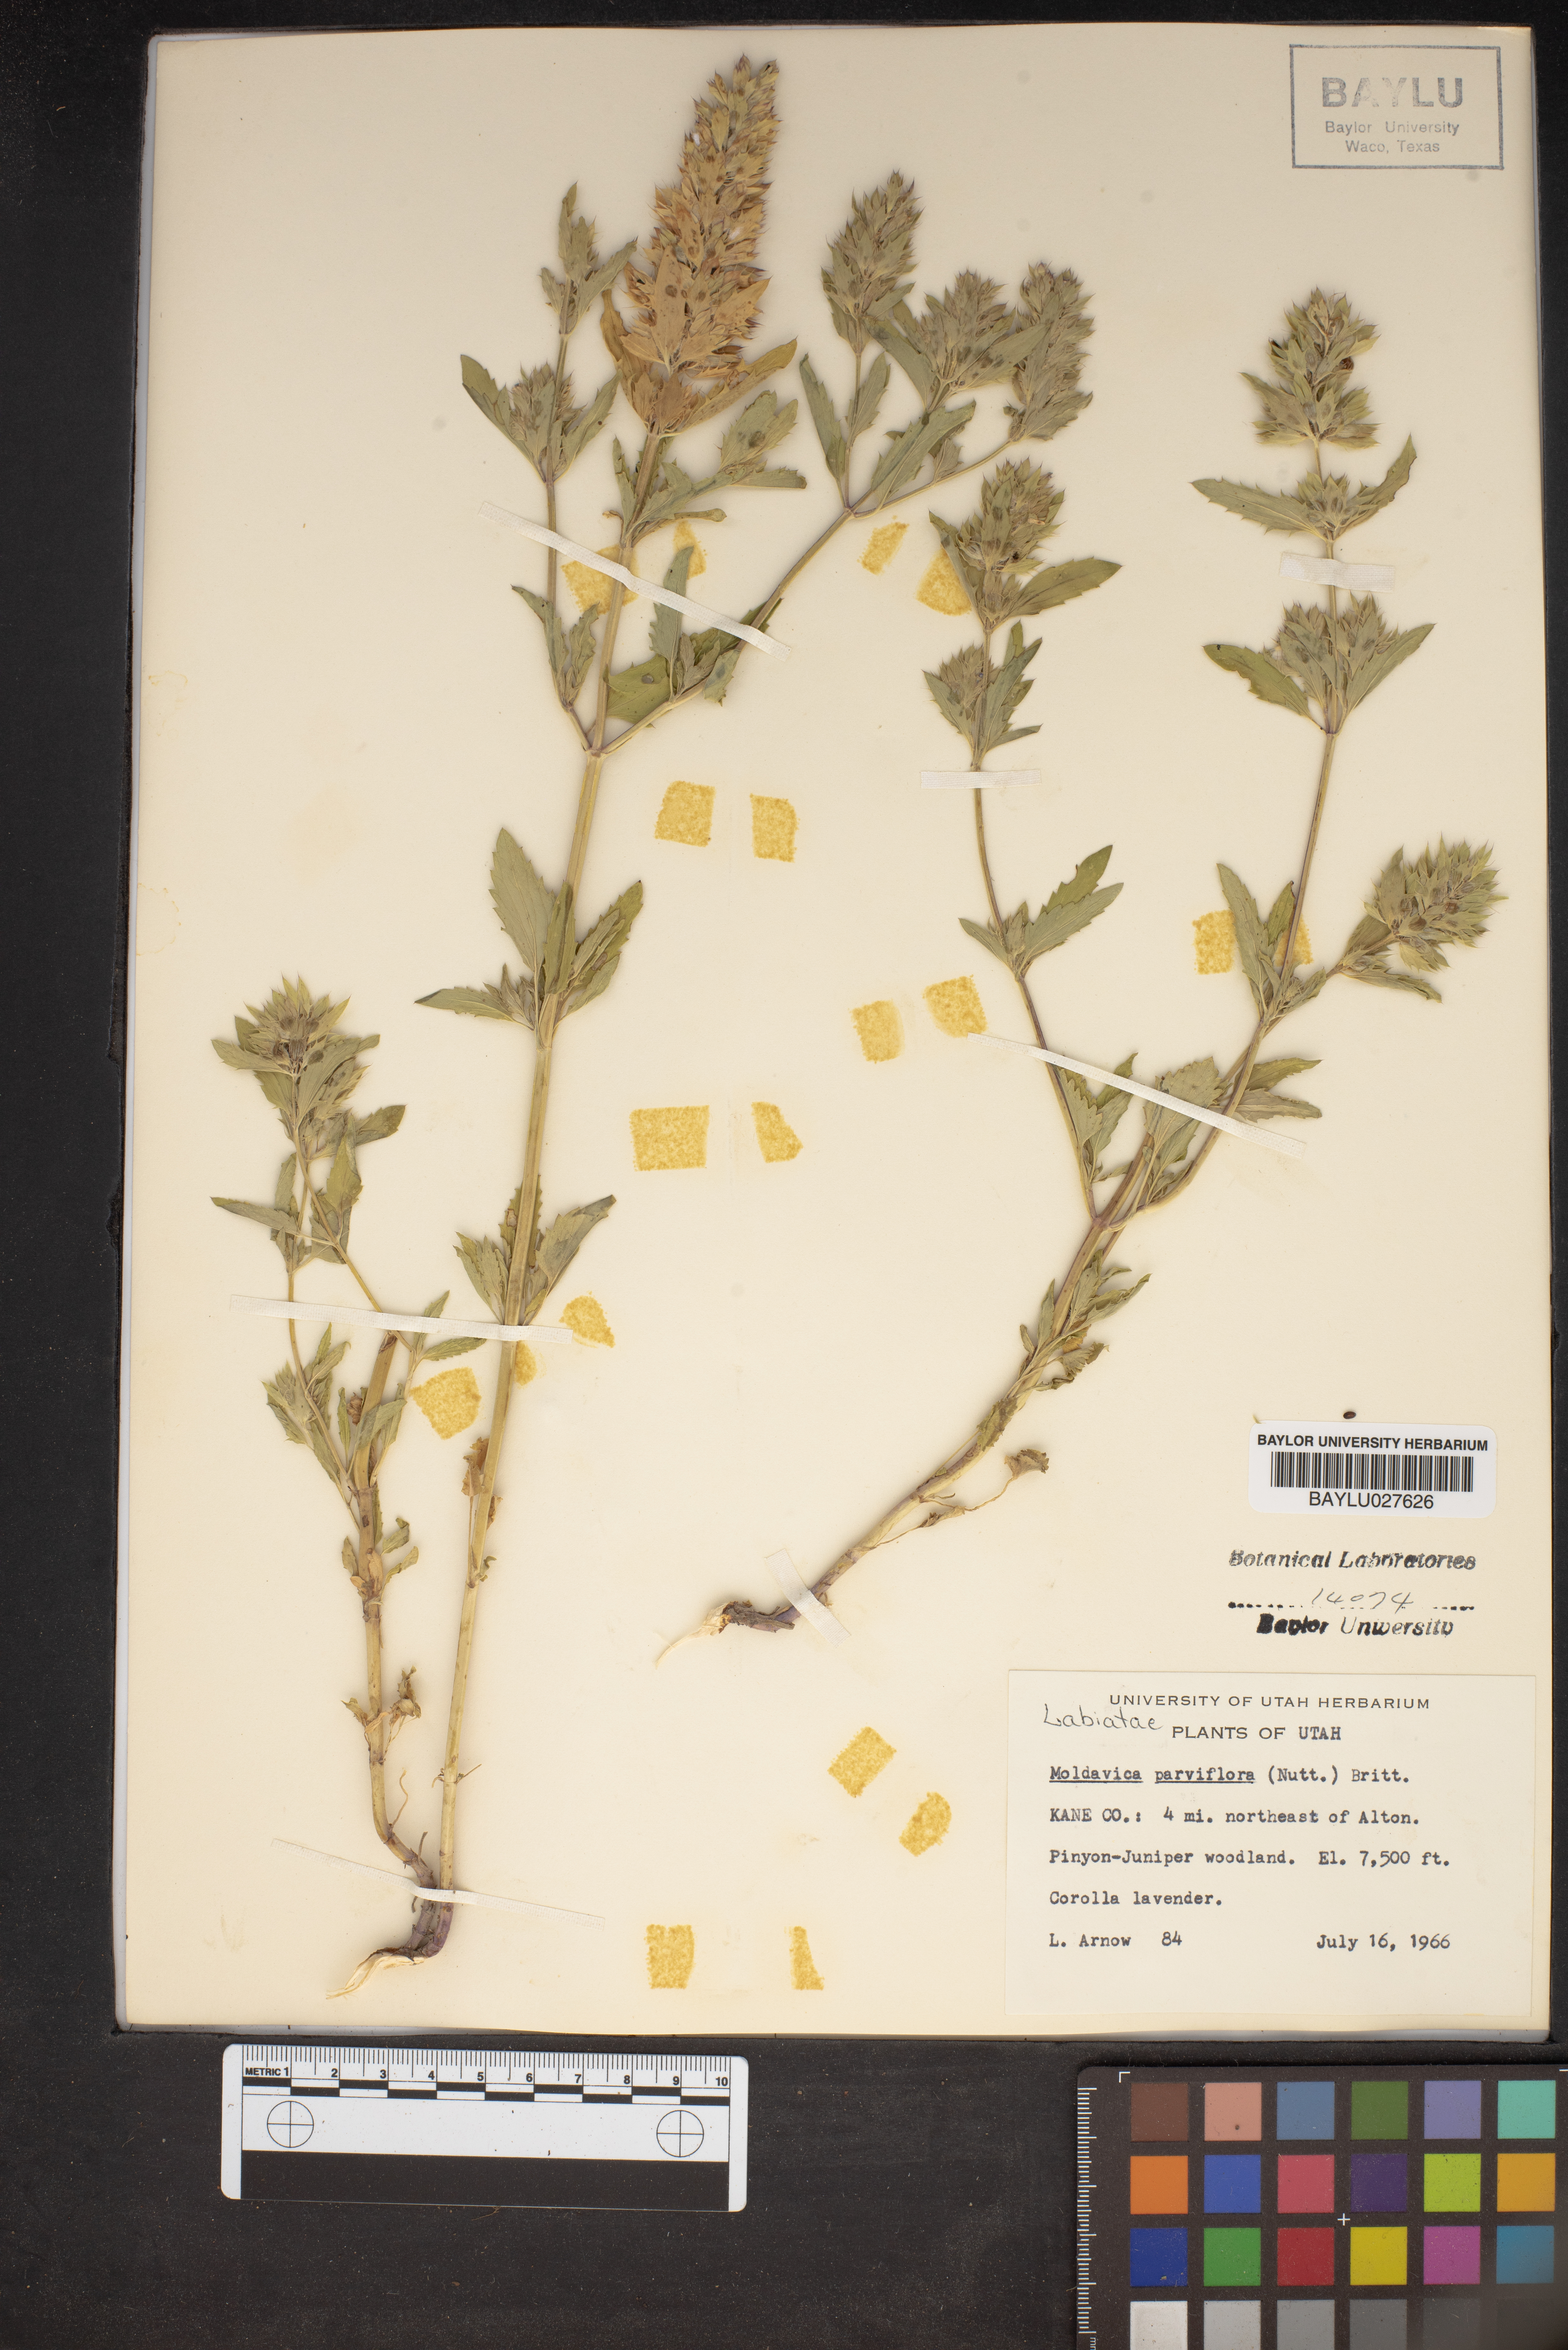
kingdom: Plantae
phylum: Tracheophyta
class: Magnoliopsida
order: Lamiales
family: Lamiaceae
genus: Physostegia
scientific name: Physostegia parviflora
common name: American dragonhead
